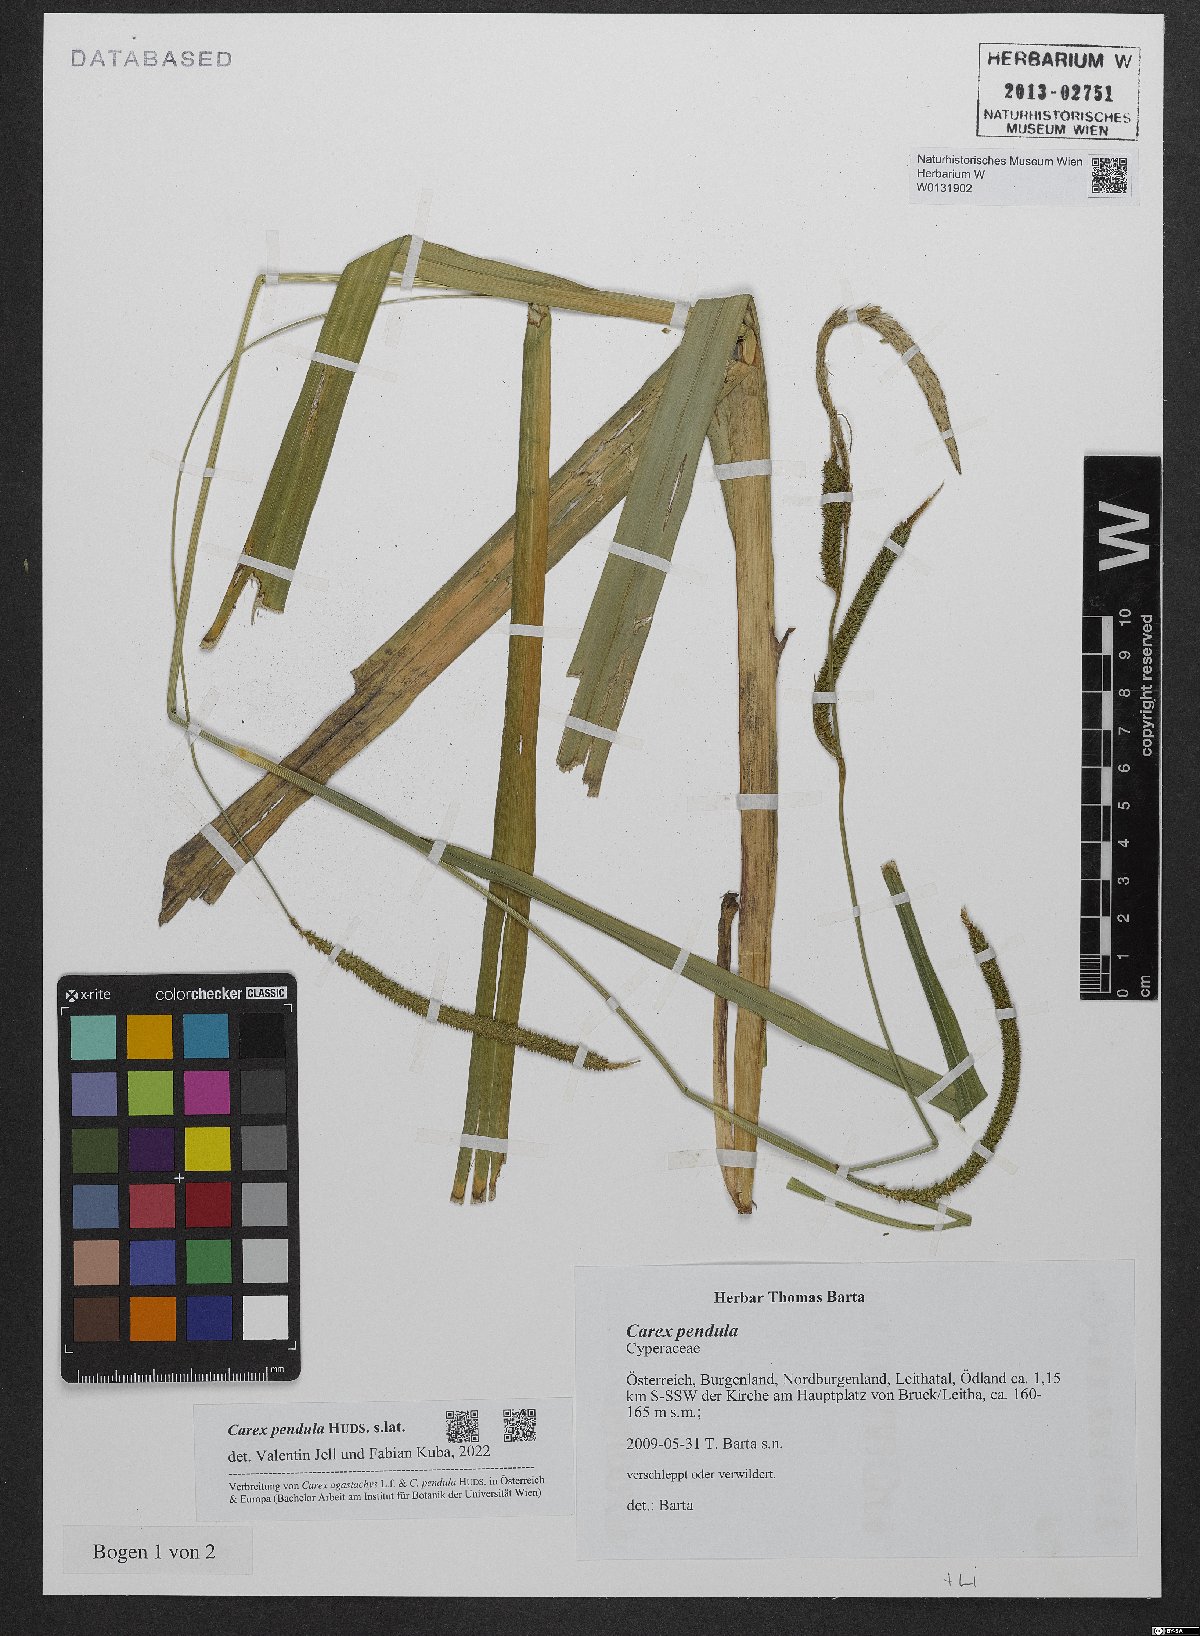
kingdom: Plantae
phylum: Tracheophyta
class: Liliopsida
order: Poales
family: Cyperaceae
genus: Carex
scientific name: Carex pendula
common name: Pendulous sedge
